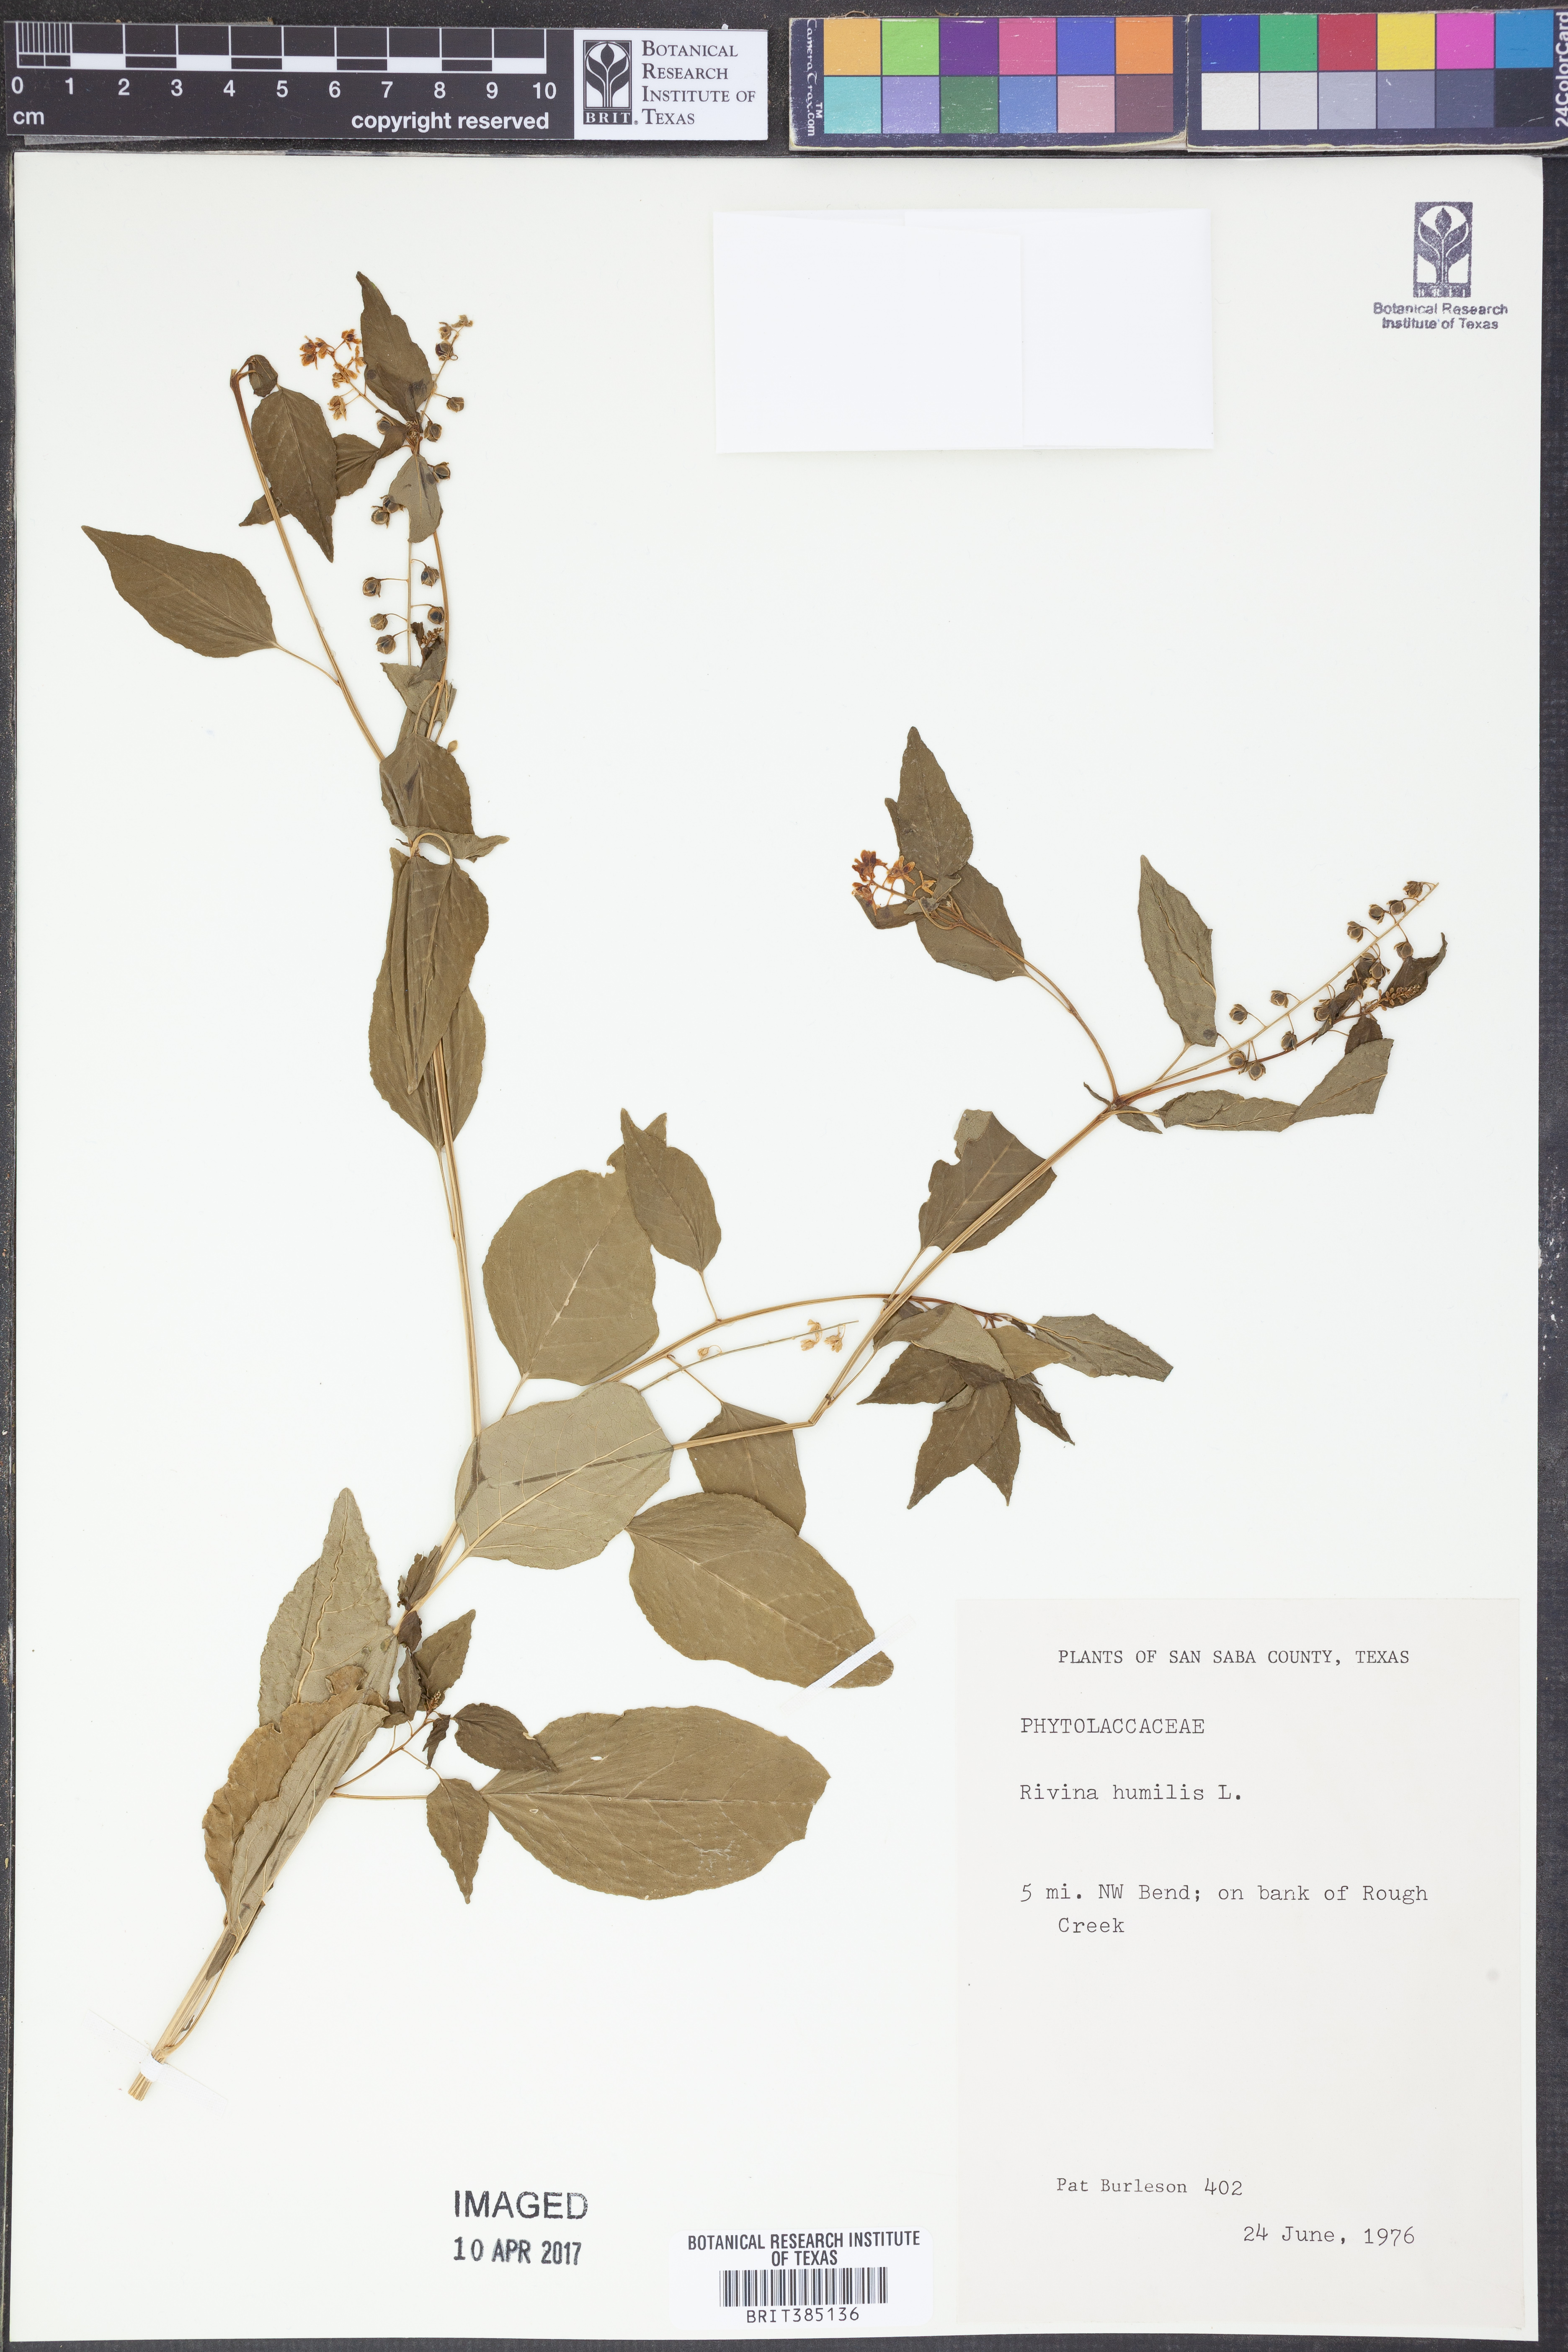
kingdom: Plantae
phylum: Tracheophyta
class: Magnoliopsida
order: Caryophyllales
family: Phytolaccaceae
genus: Rivina
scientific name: Rivina humilis
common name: Rougeplant
